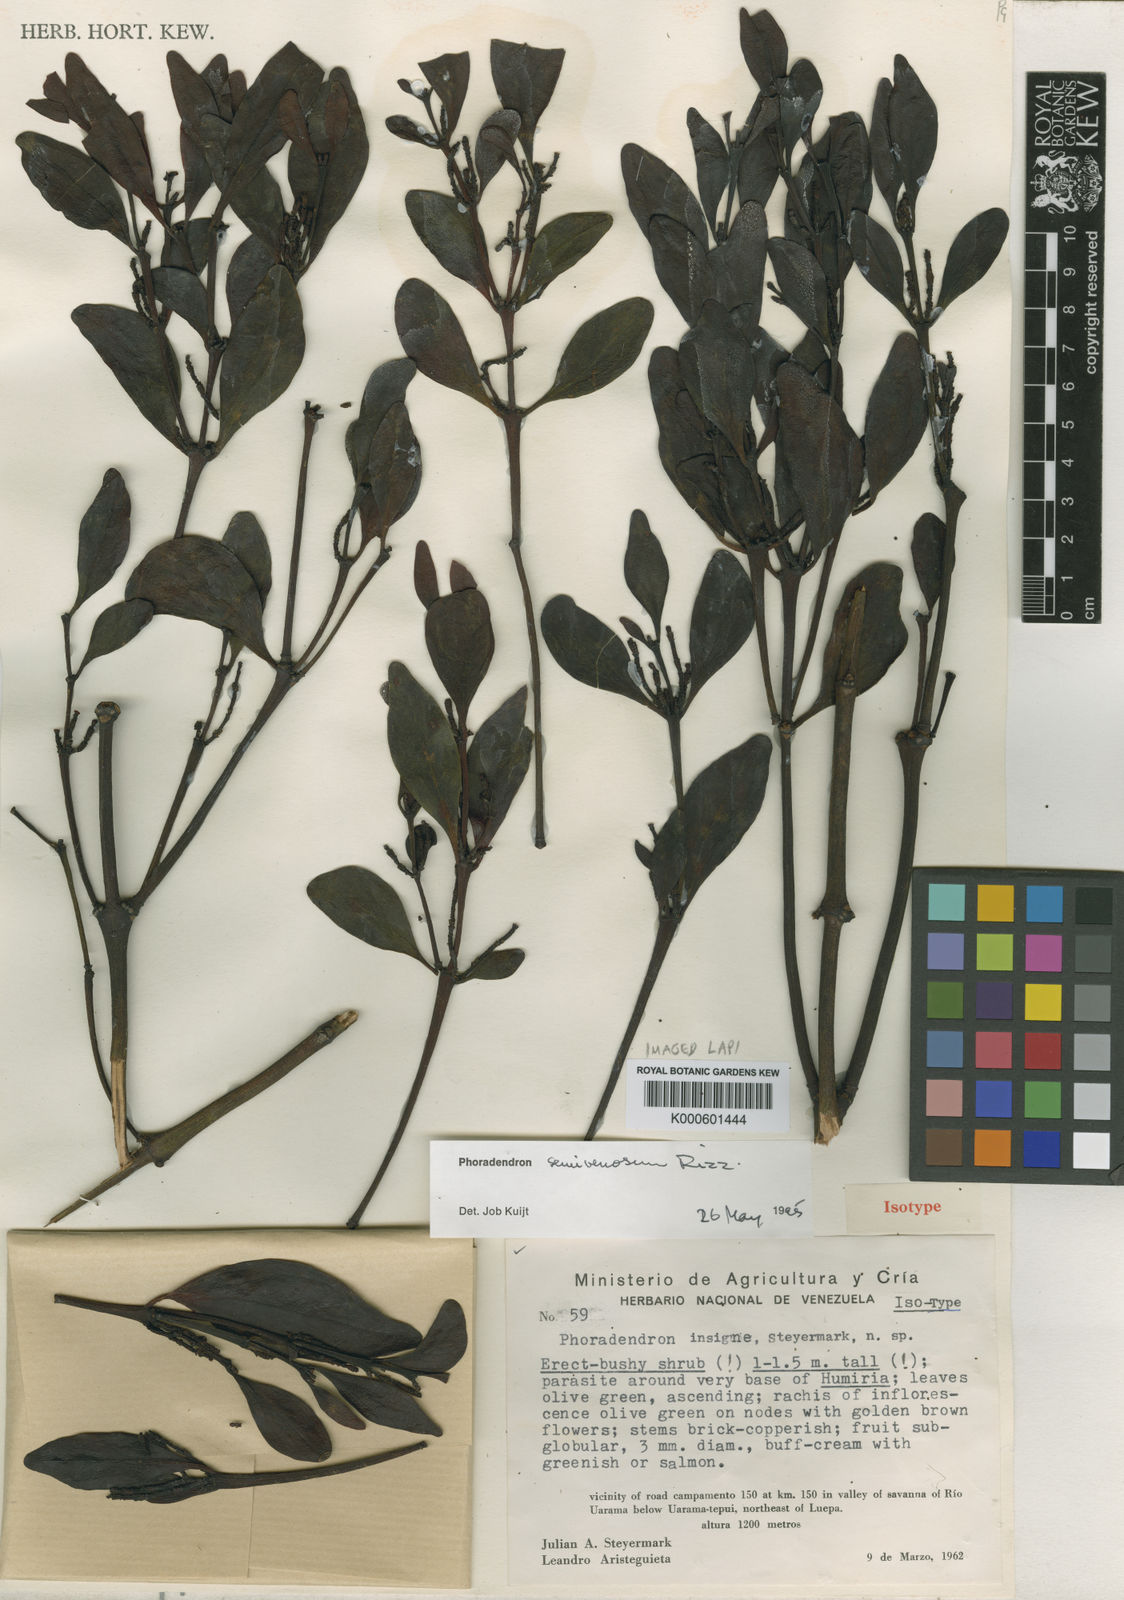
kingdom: Plantae
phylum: Tracheophyta
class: Magnoliopsida
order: Santalales
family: Viscaceae
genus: Phoradendron
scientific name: Phoradendron pellucidulum
